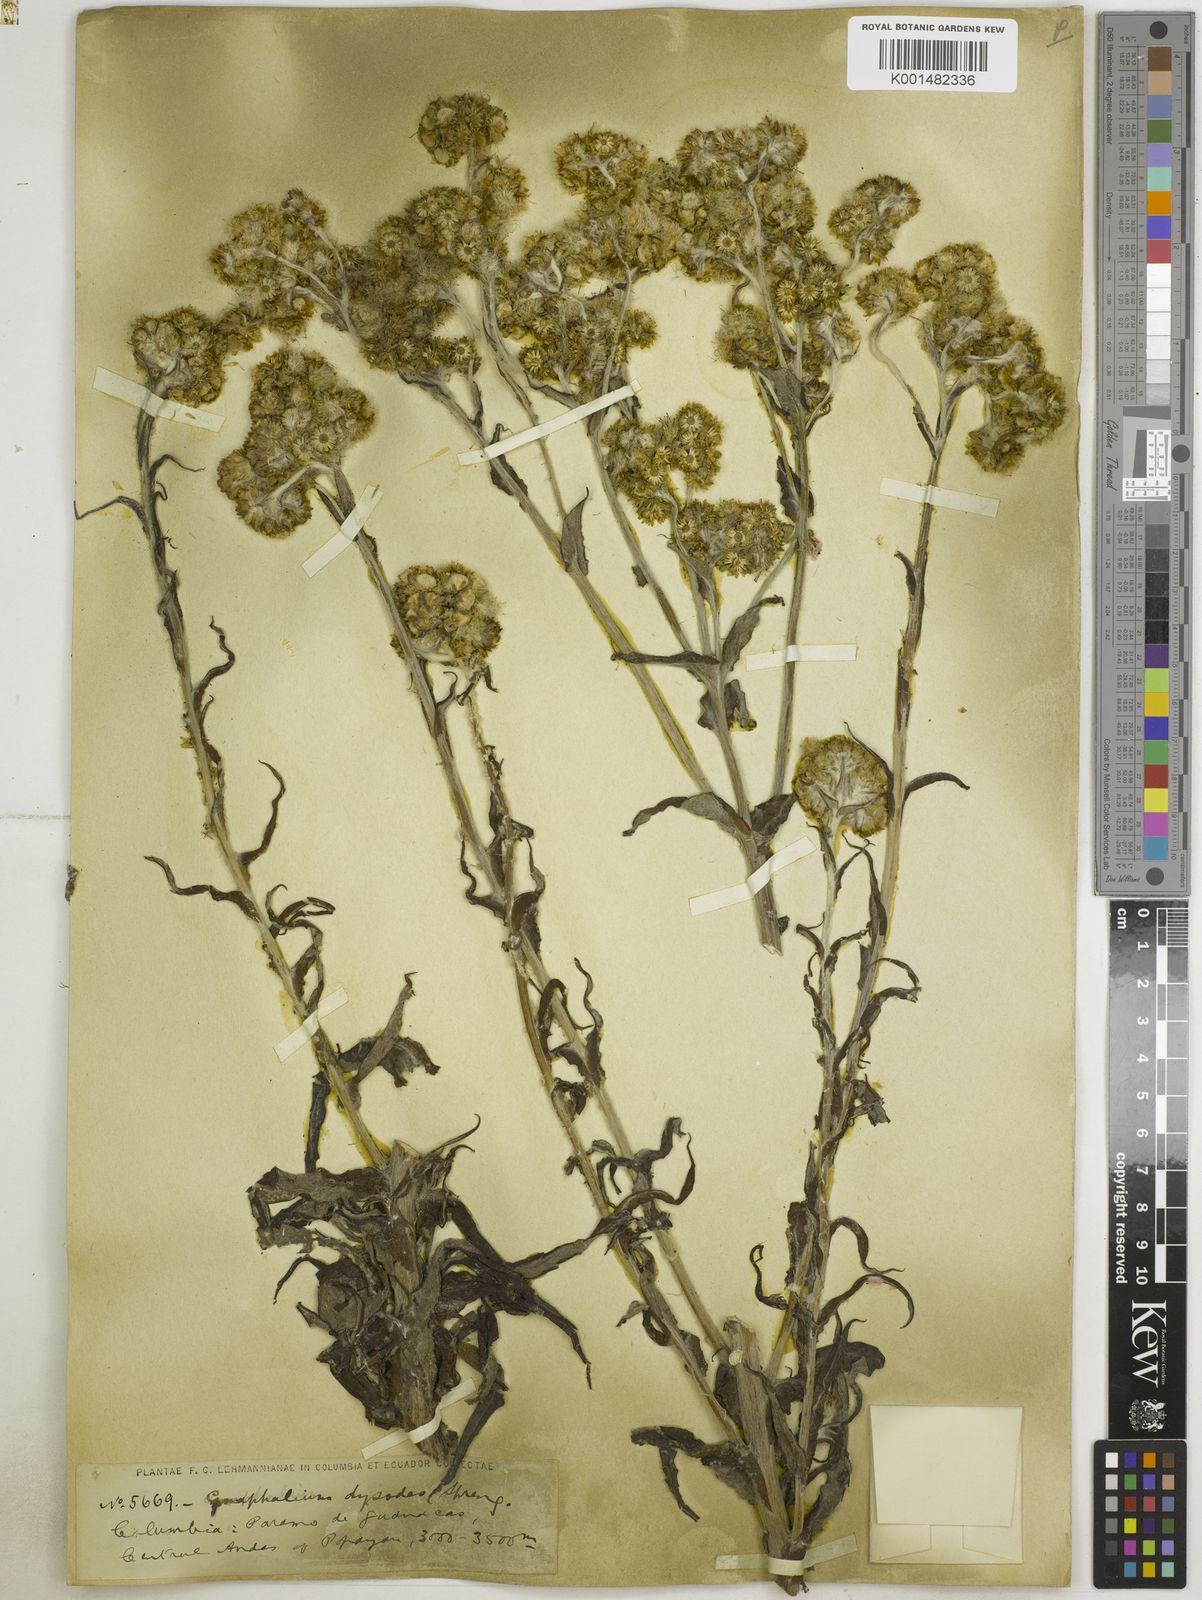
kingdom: Plantae
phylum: Tracheophyta
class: Magnoliopsida
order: Asterales
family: Asteraceae
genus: Pseudognaphalium
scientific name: Pseudognaphalium dysodes
